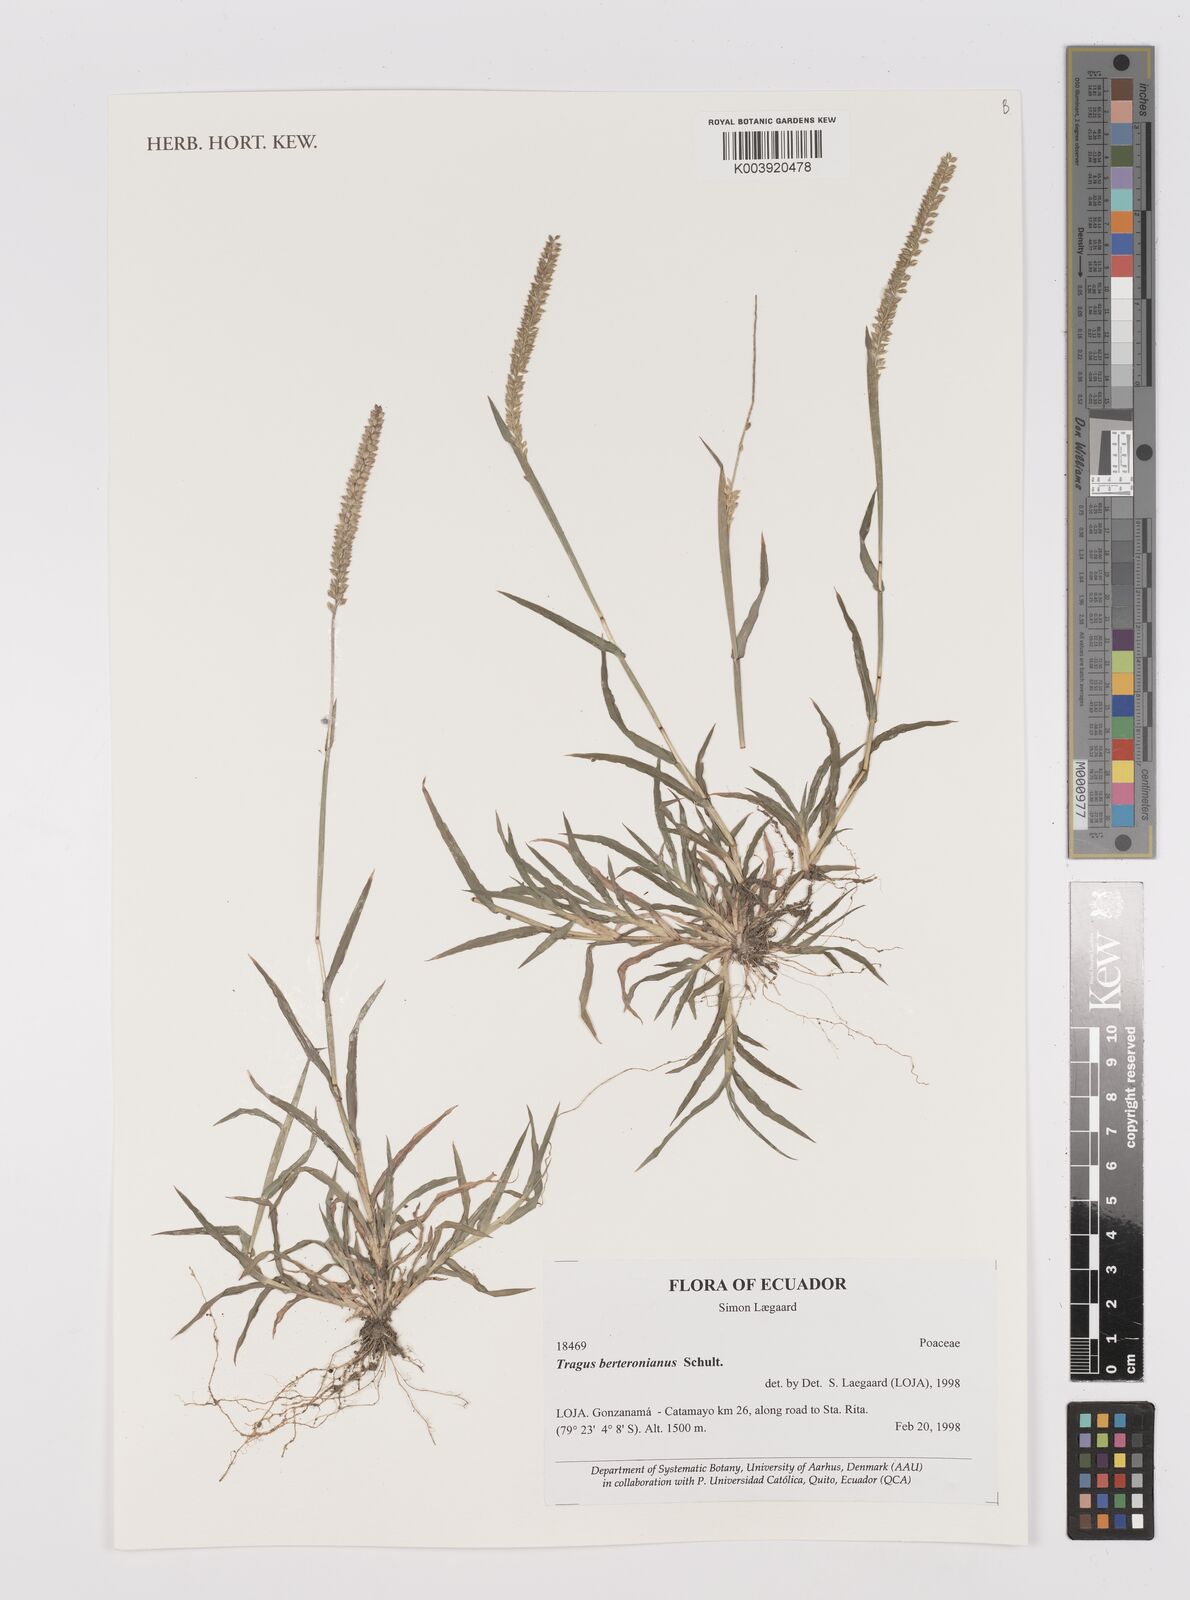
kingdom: Plantae
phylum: Tracheophyta
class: Liliopsida
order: Poales
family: Poaceae
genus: Tragus
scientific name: Tragus berteronianus
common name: African bur-grass
